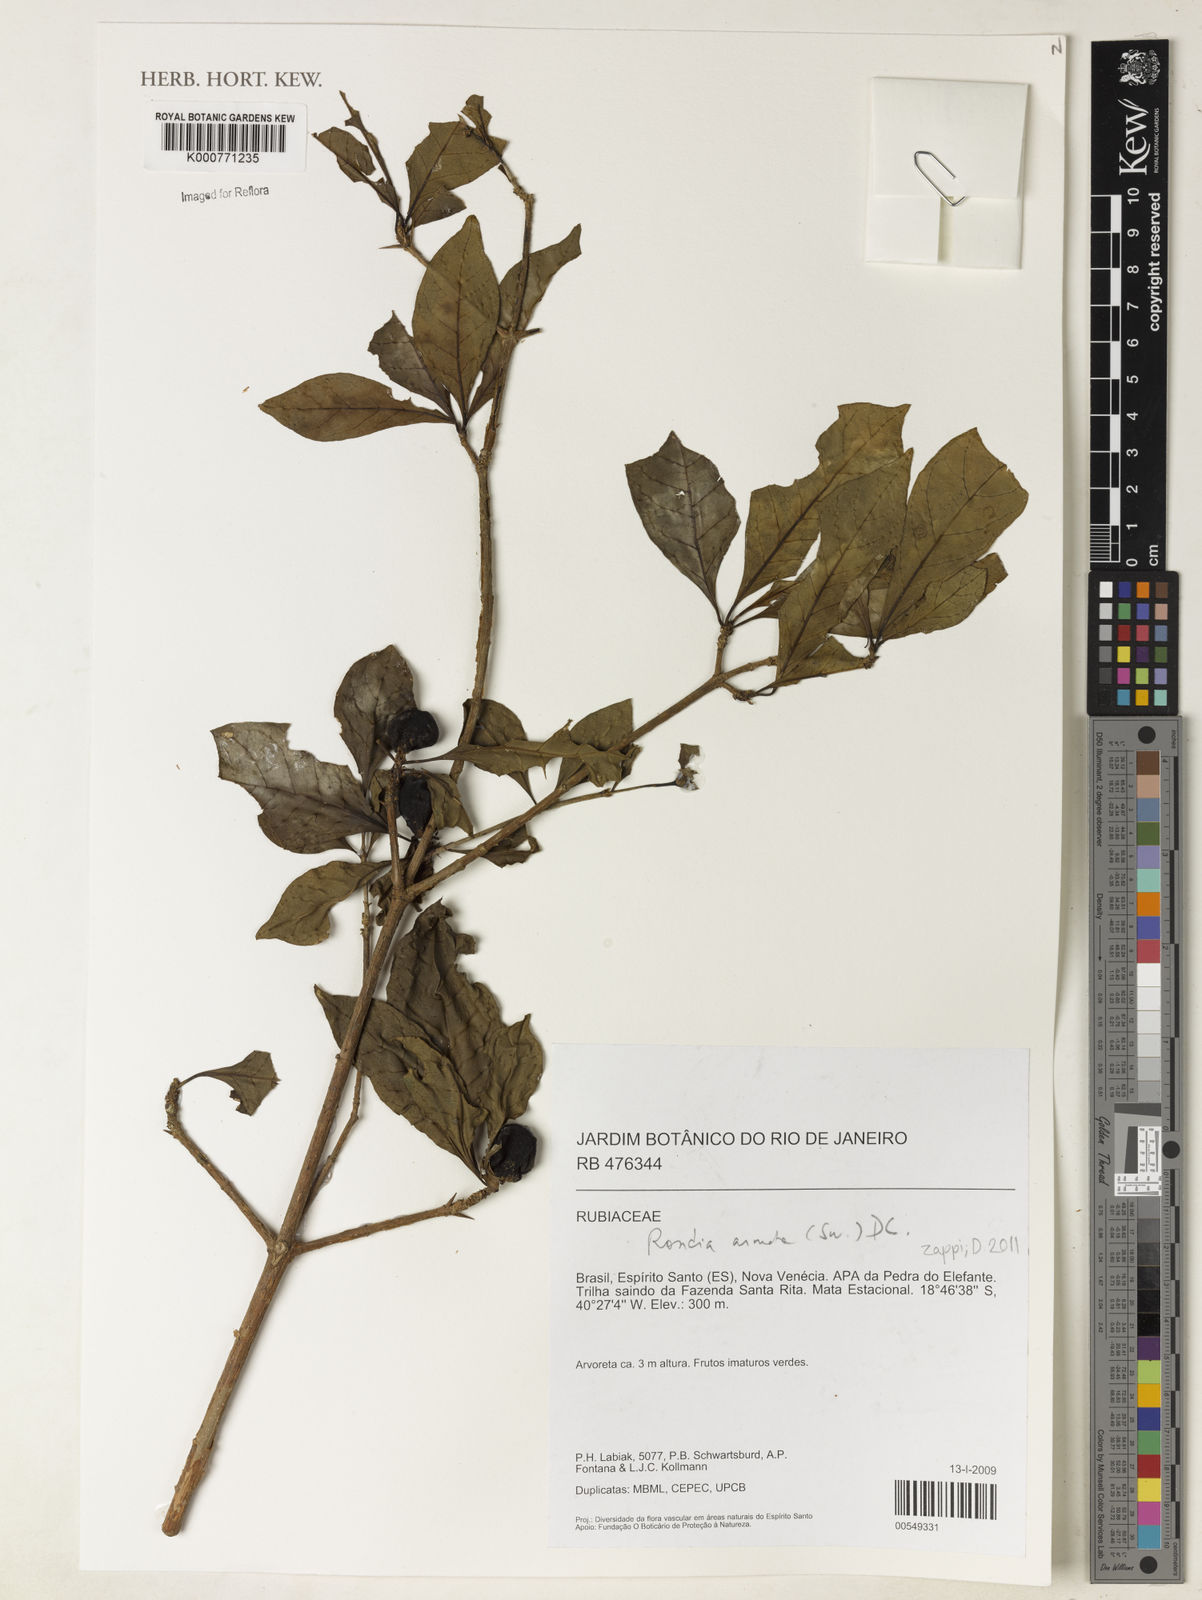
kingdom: Plantae
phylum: Tracheophyta
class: Magnoliopsida
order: Gentianales
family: Rubiaceae
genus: Randia
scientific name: Randia armata
